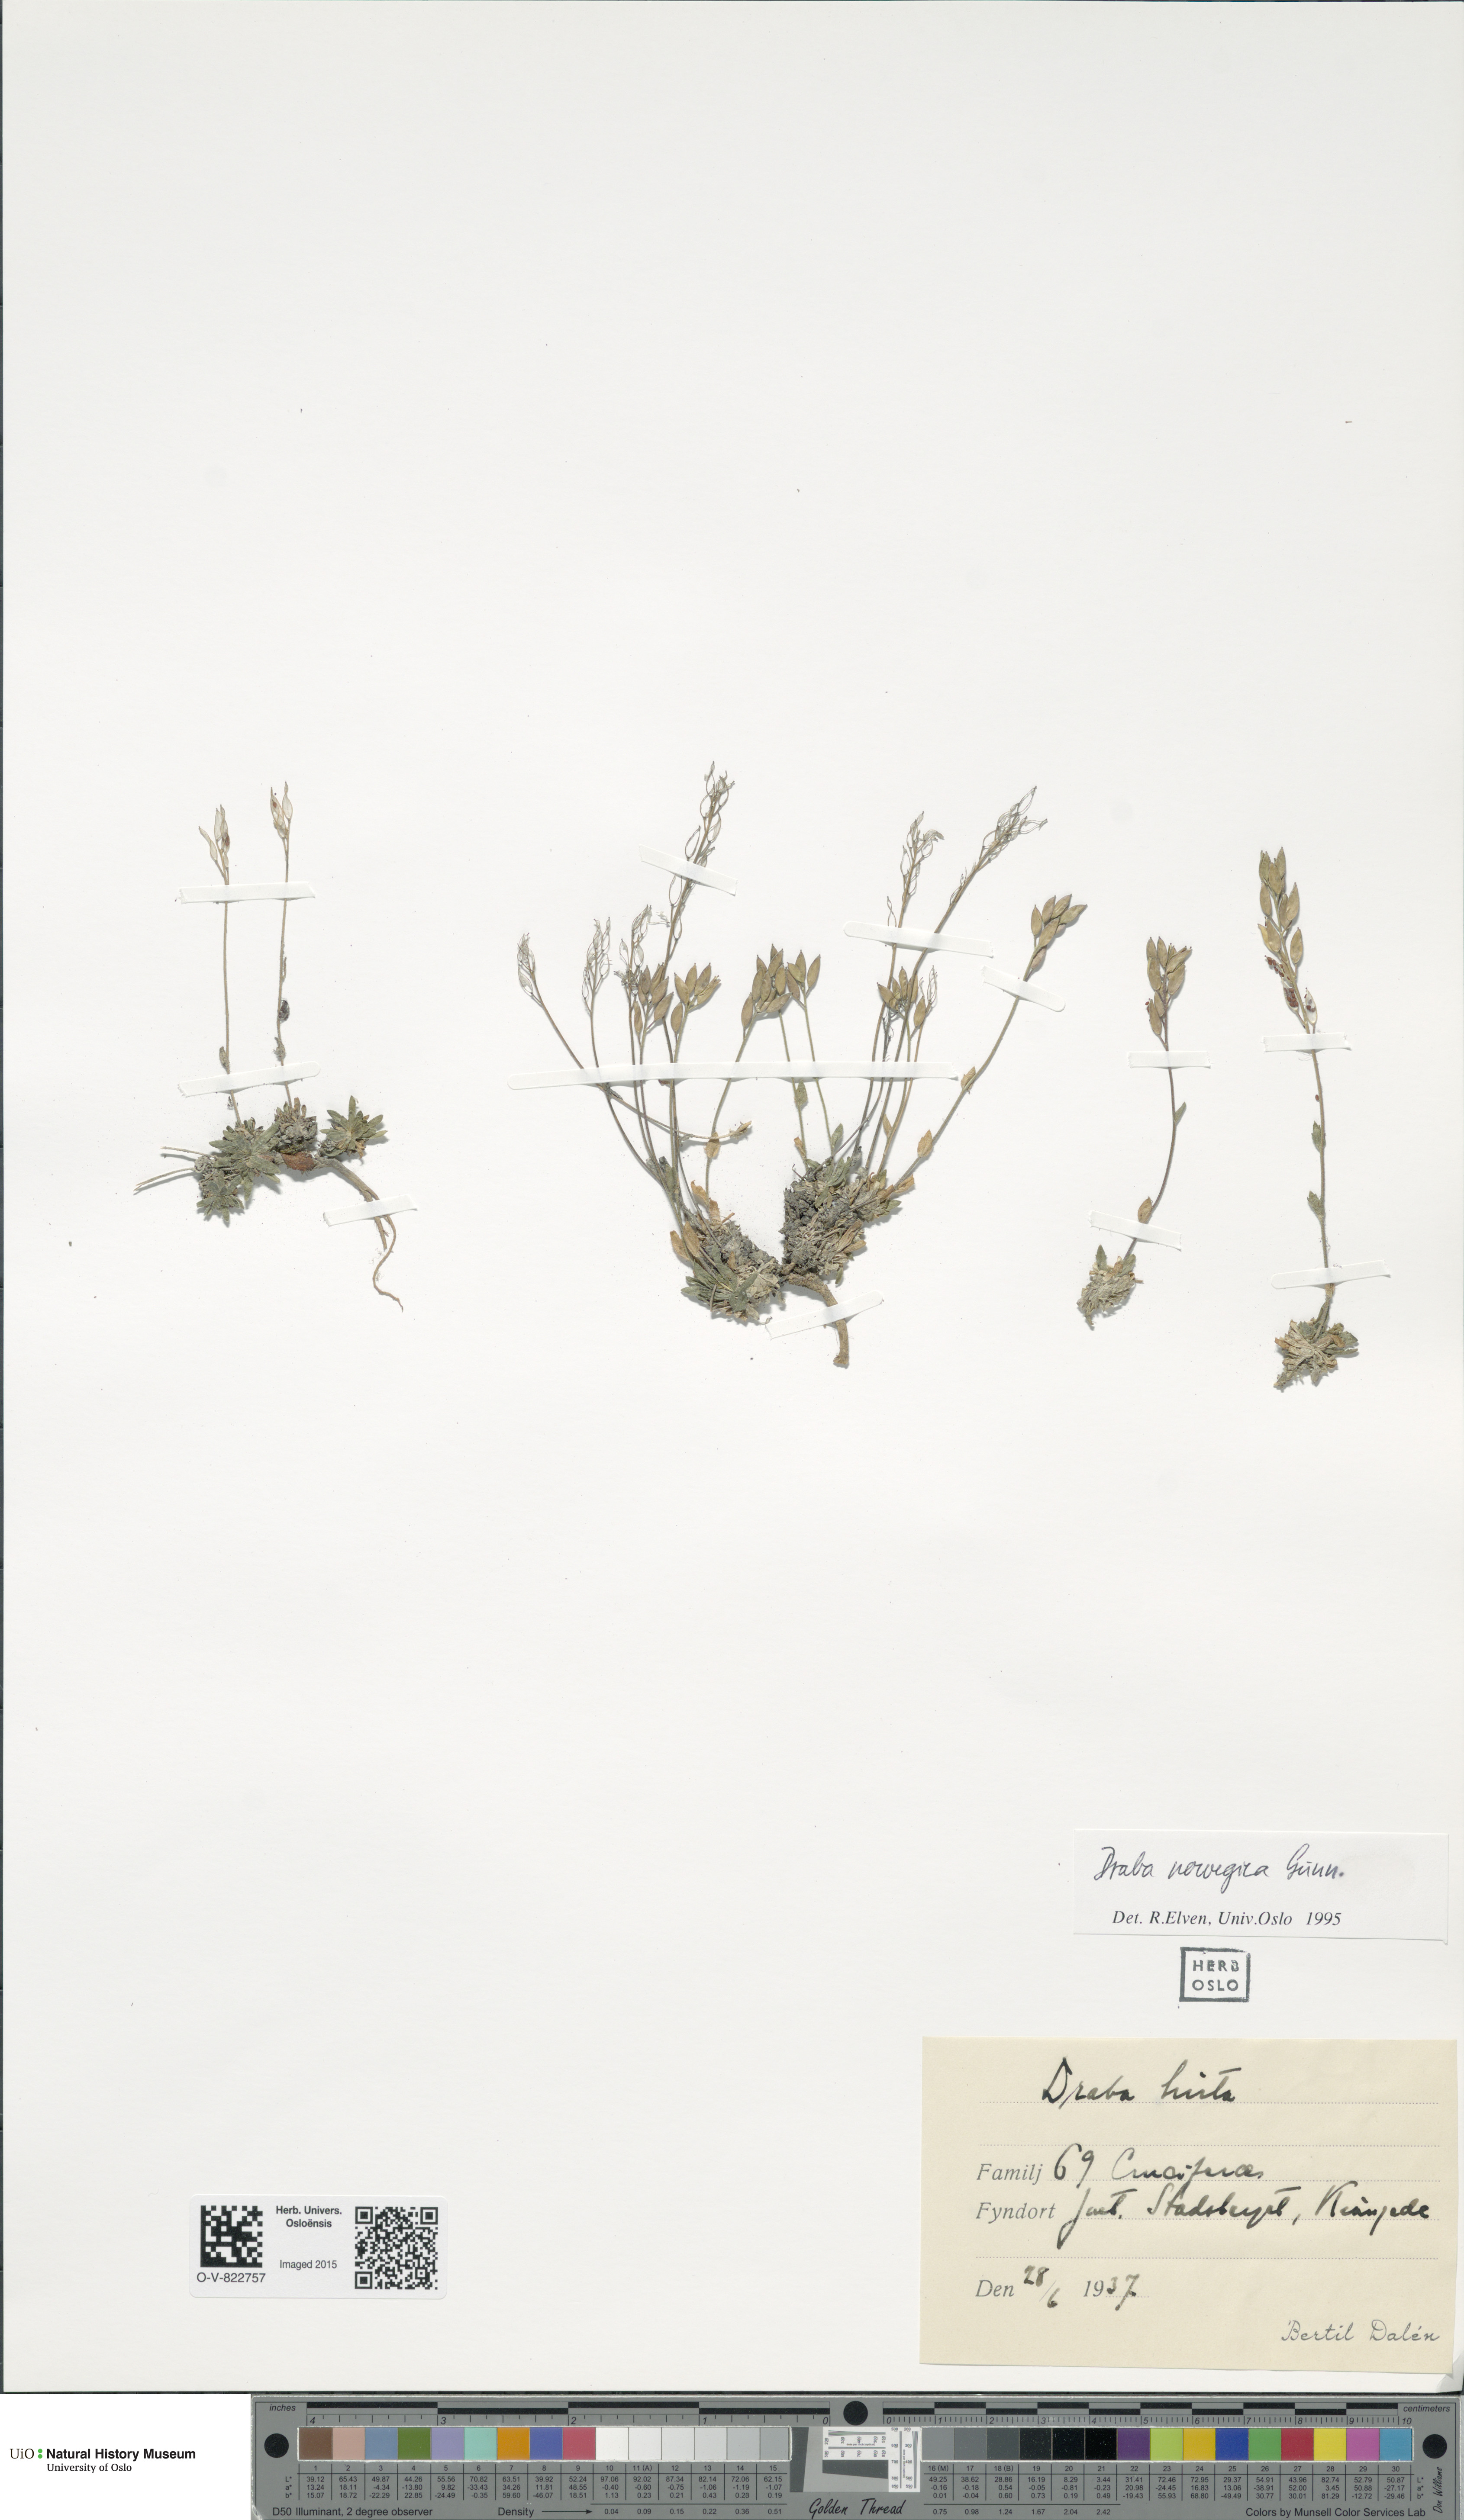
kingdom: Plantae
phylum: Tracheophyta
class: Magnoliopsida
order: Brassicales
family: Brassicaceae
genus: Draba
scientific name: Draba norvegica
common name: Rock whitlowgrass
